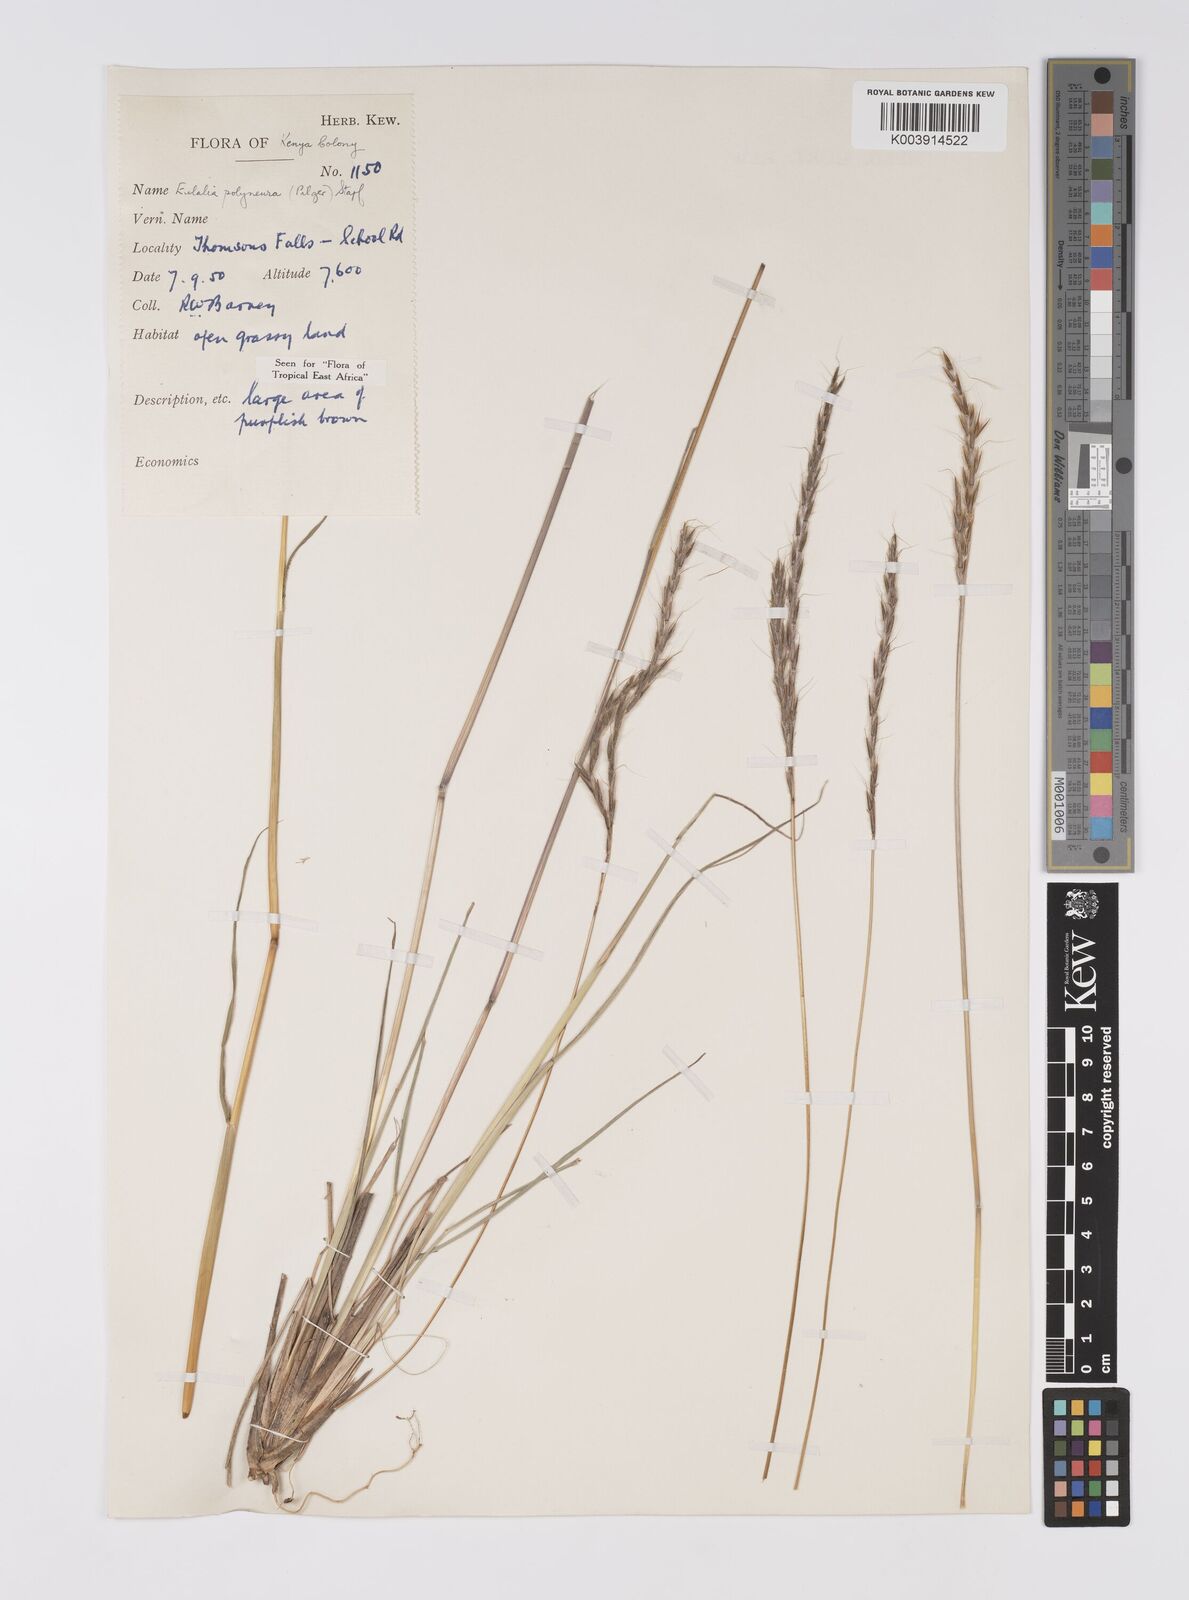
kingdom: Plantae
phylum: Tracheophyta
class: Liliopsida
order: Poales
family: Poaceae
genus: Eulalia
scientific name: Eulalia polyneura
